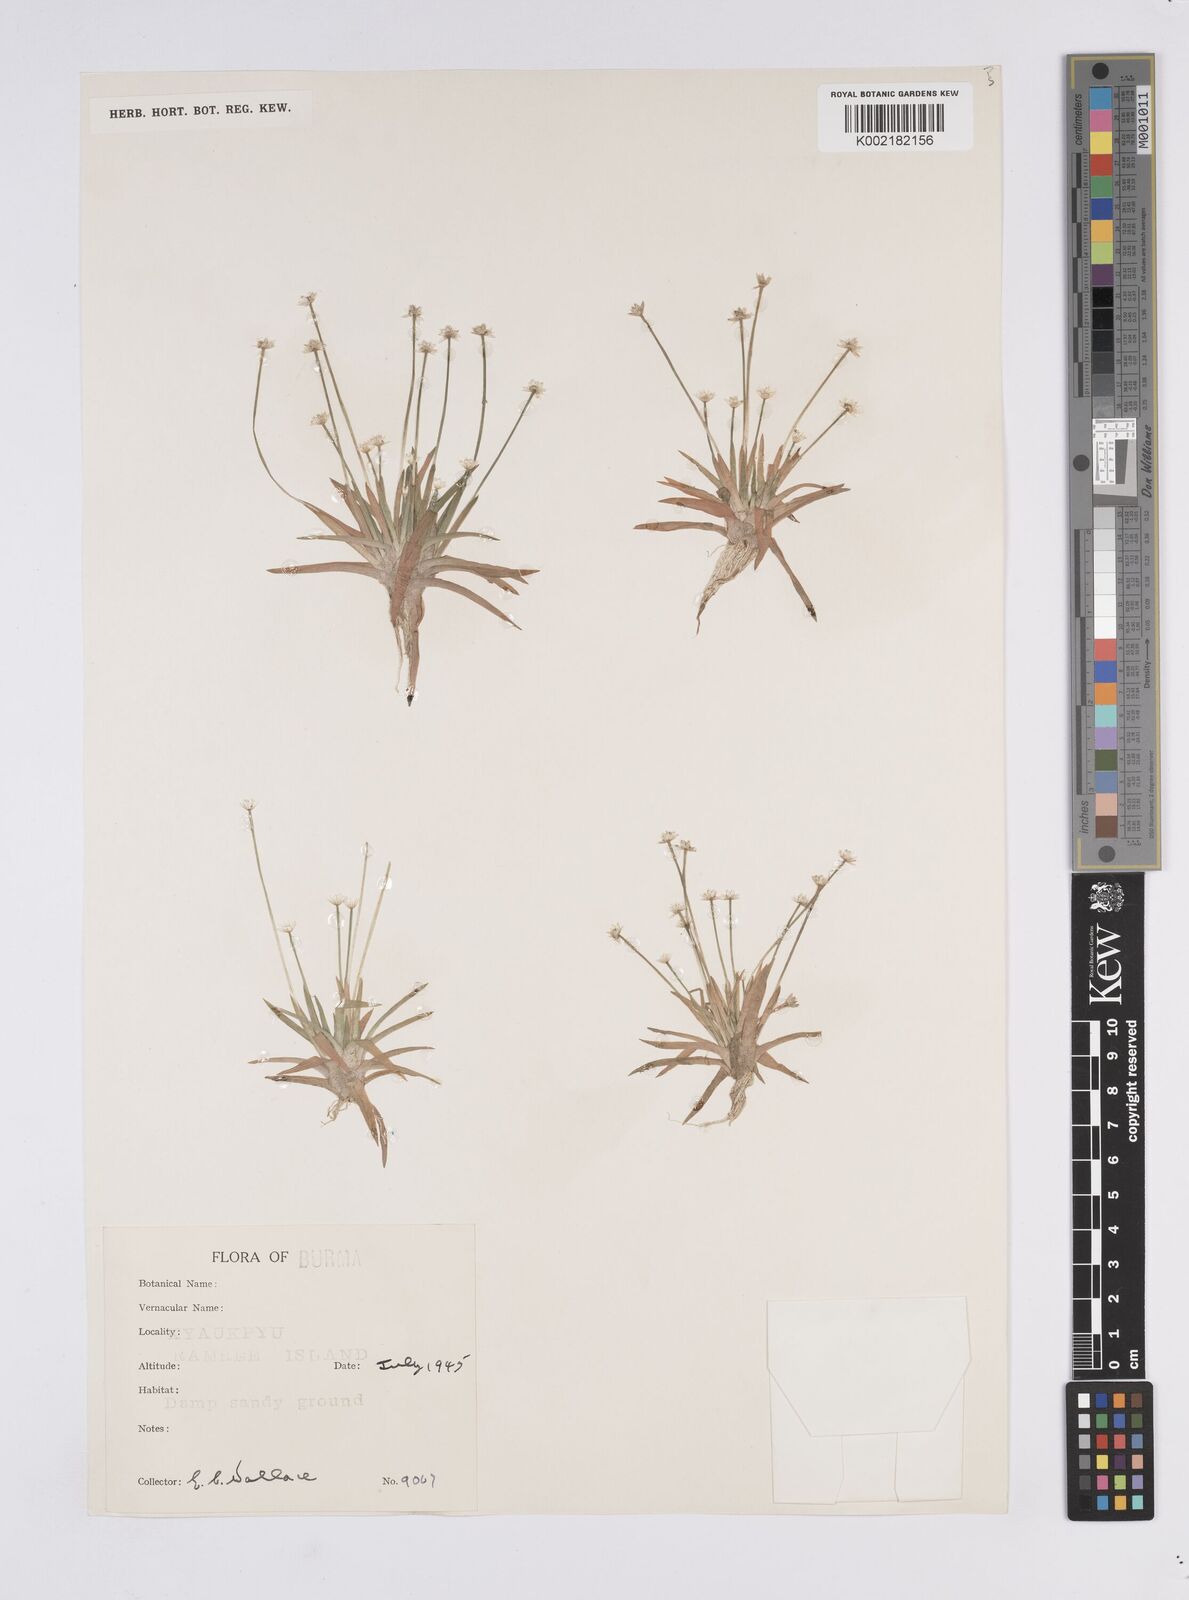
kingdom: Plantae
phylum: Tracheophyta
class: Liliopsida
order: Poales
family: Eriocaulaceae
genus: Eriocaulon
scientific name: Eriocaulon
